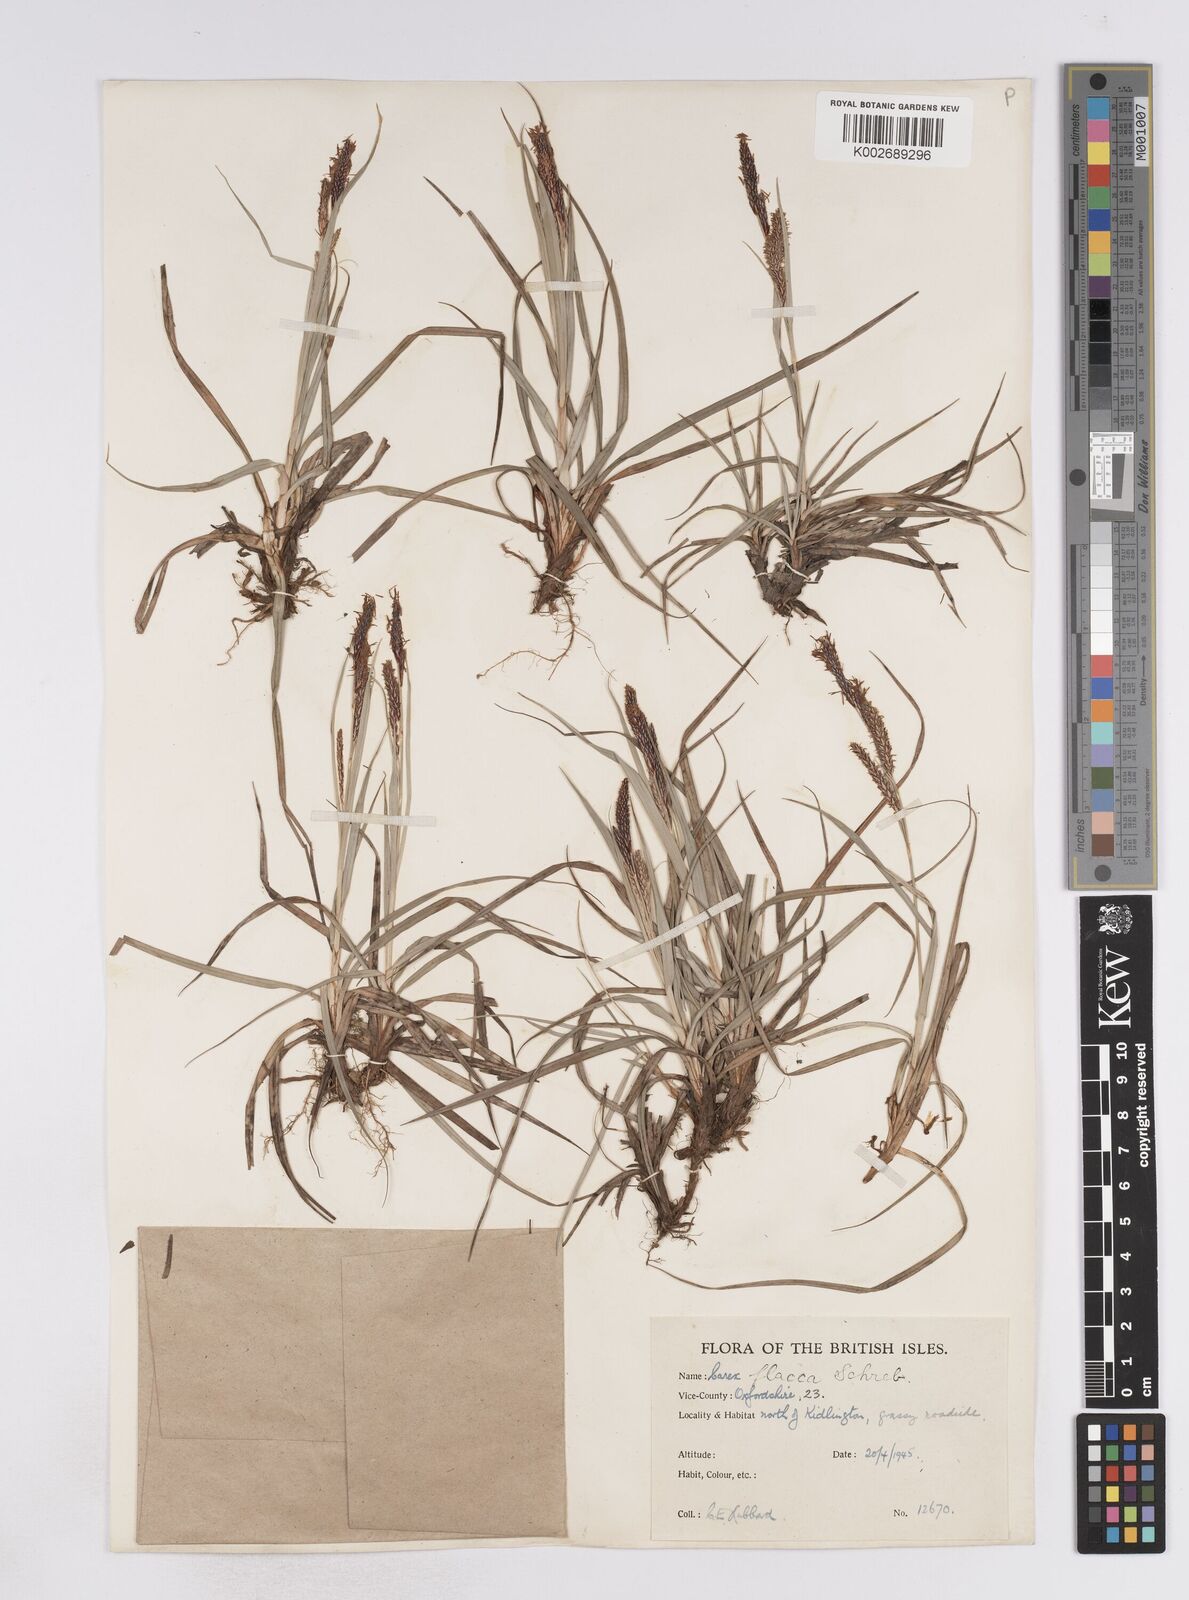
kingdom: Plantae
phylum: Tracheophyta
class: Liliopsida
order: Poales
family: Cyperaceae
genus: Carex
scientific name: Carex flacca
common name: Glaucous sedge
